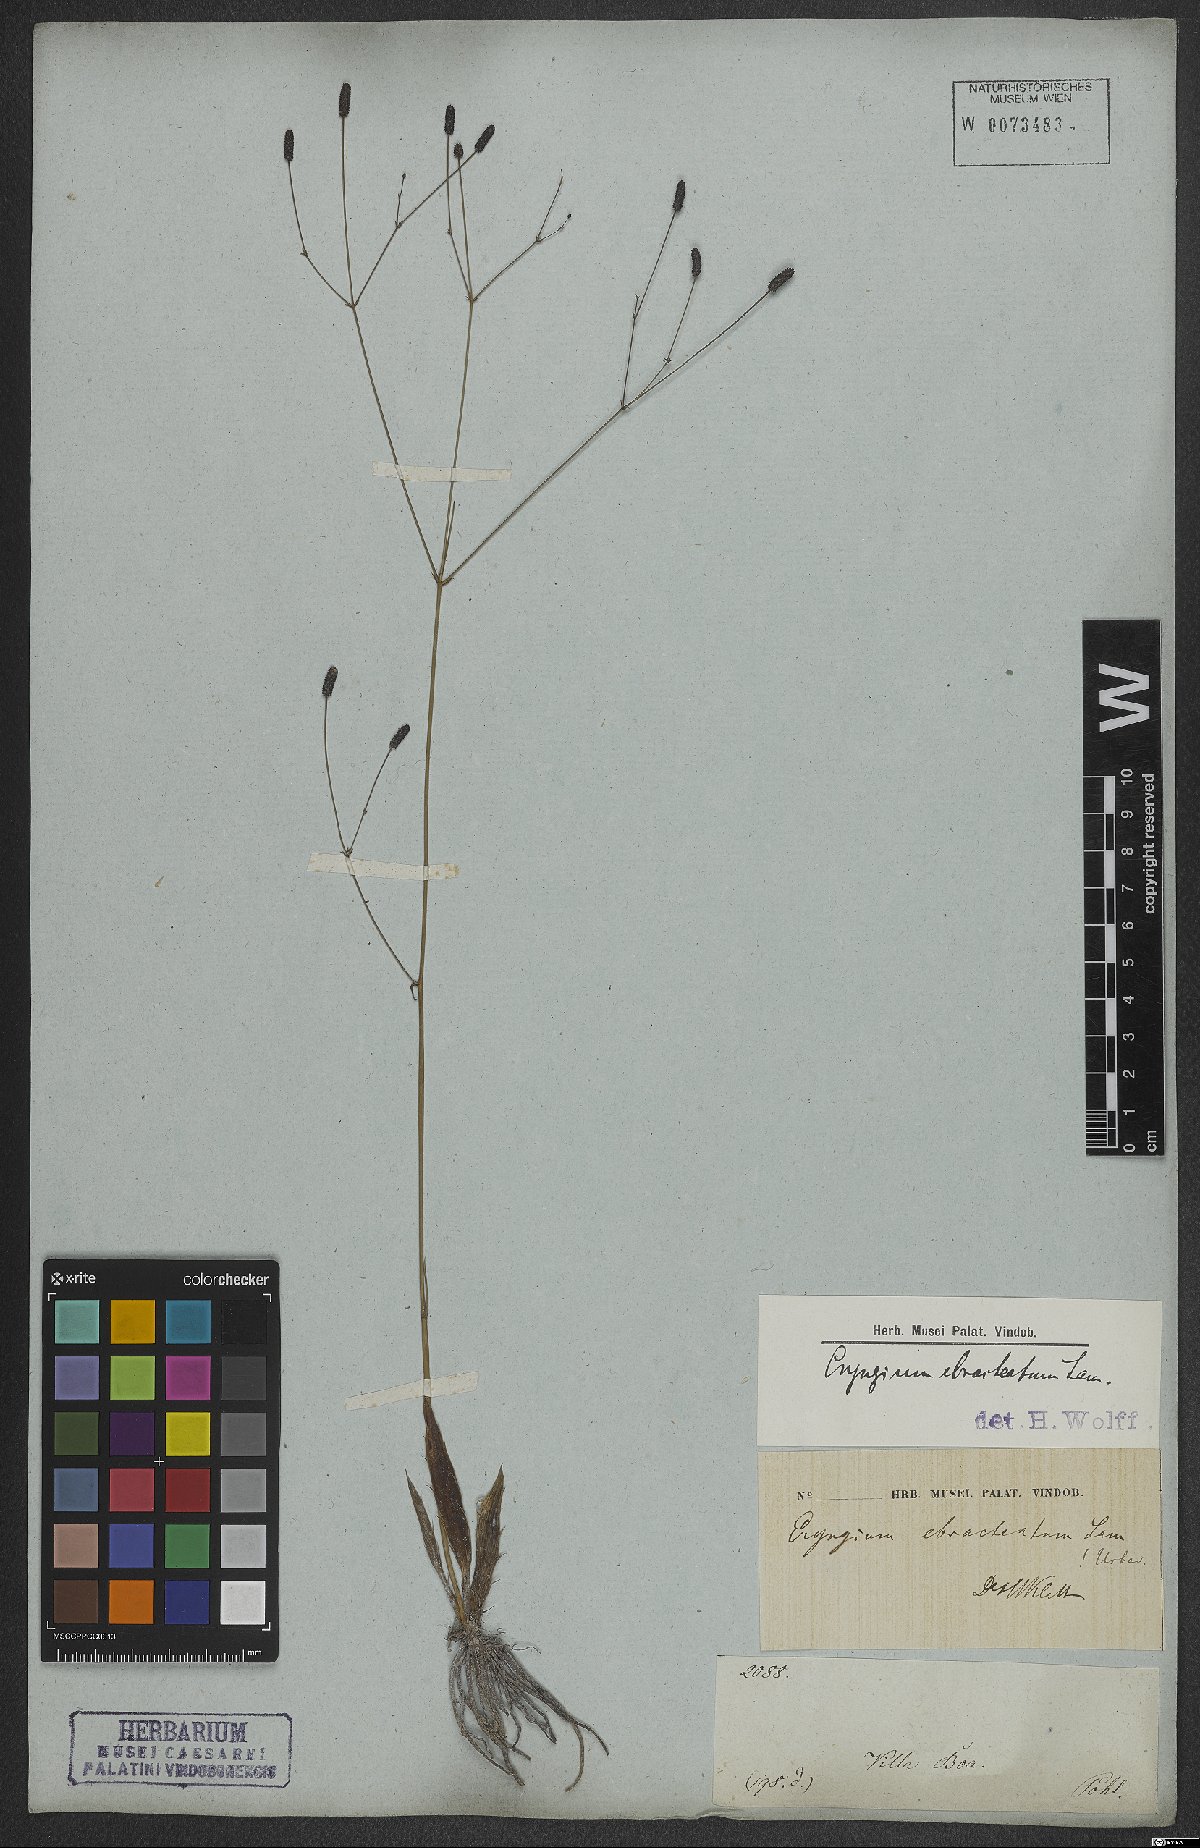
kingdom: Plantae
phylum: Tracheophyta
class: Magnoliopsida
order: Apiales
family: Apiaceae
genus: Eryngium
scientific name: Eryngium ebracteatum
